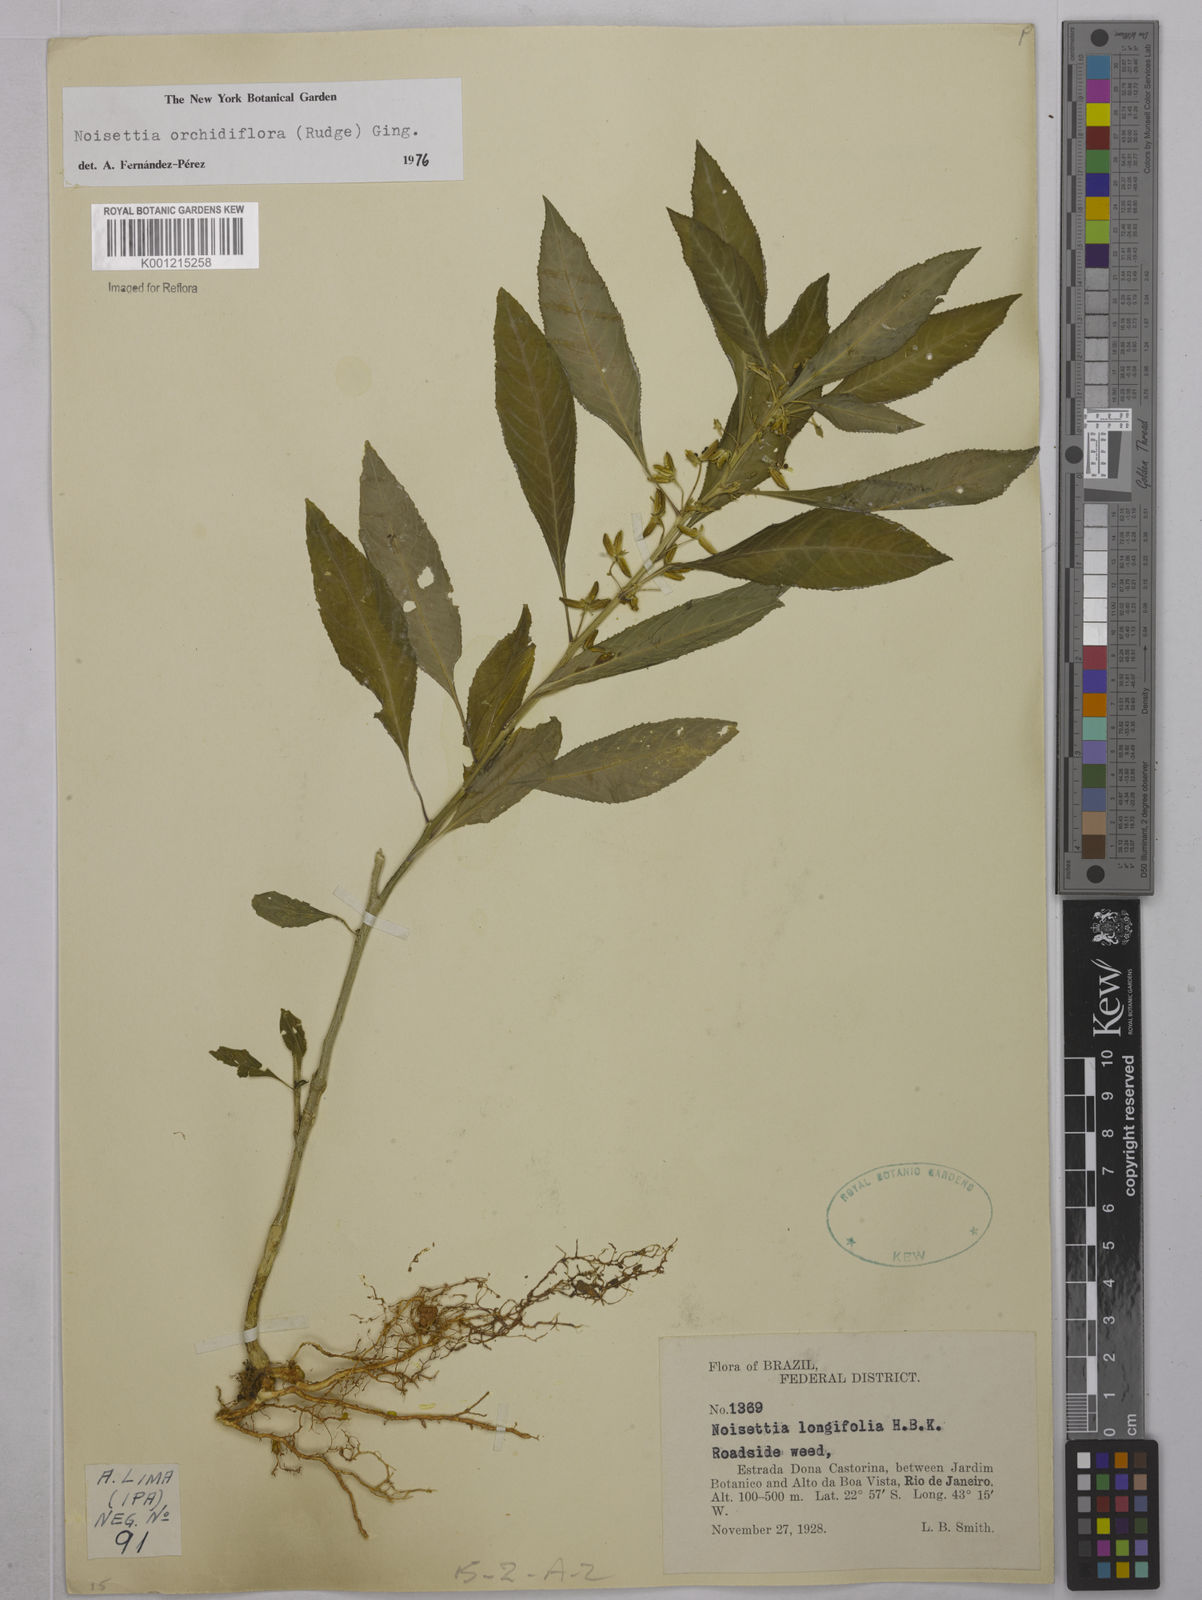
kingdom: Plantae
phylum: Tracheophyta
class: Magnoliopsida
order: Malpighiales
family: Violaceae
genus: Noisettia
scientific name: Noisettia orchidiflora
